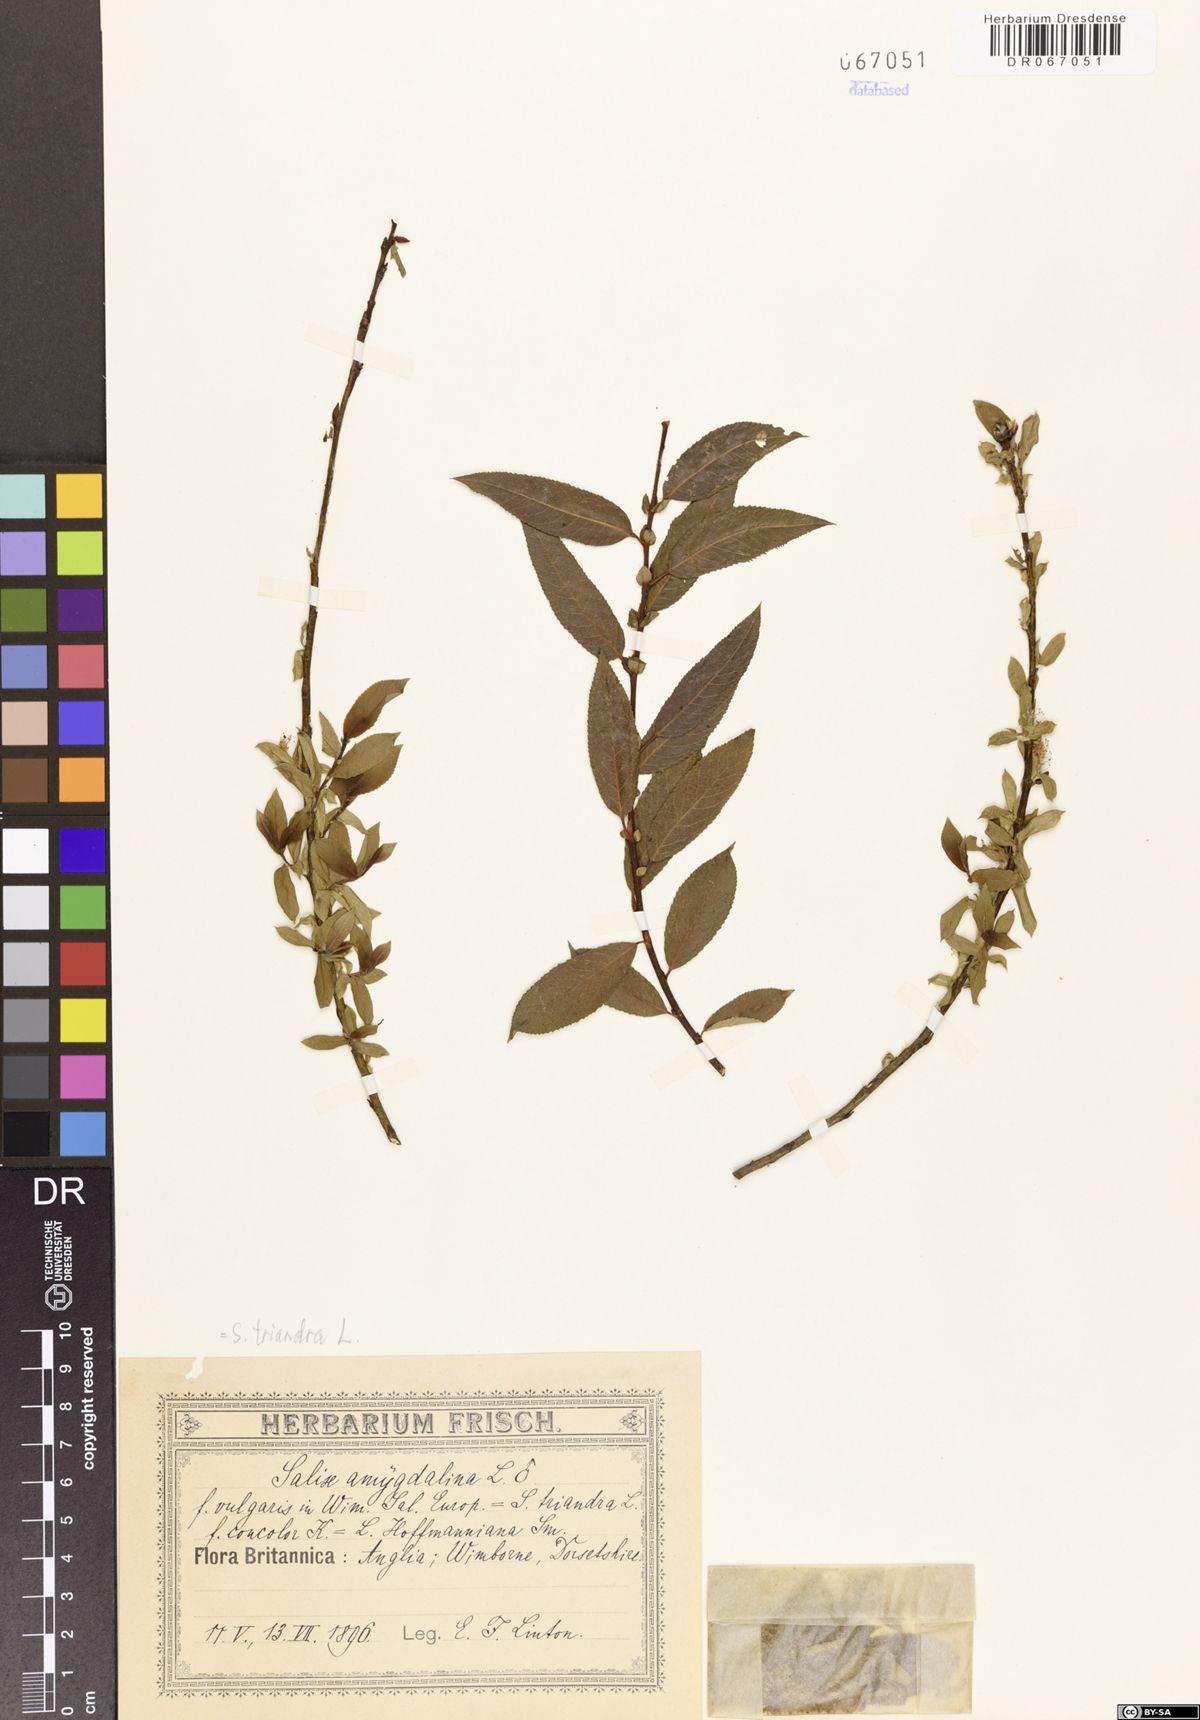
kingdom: Plantae
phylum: Tracheophyta
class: Magnoliopsida
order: Malpighiales
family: Salicaceae
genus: Salix
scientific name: Salix triandra
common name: Almond willow
